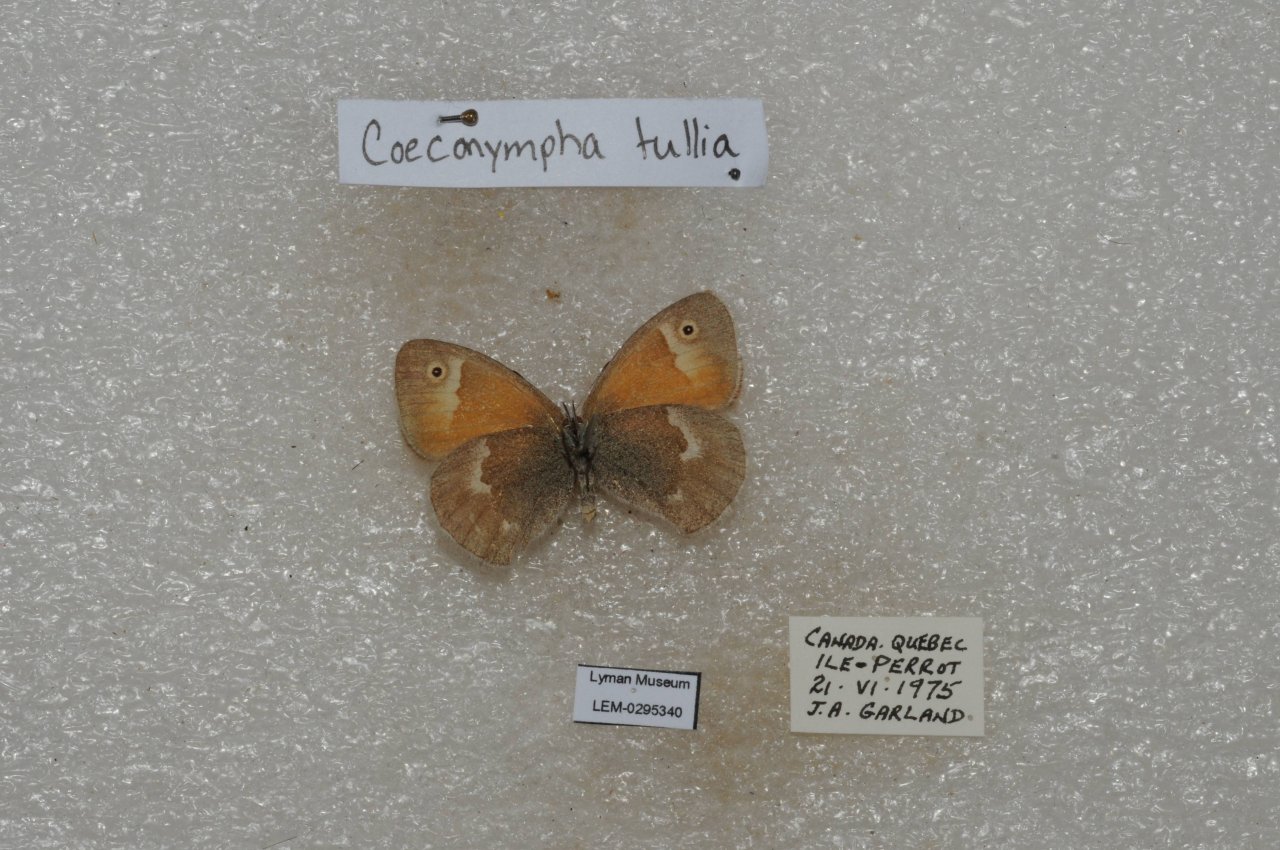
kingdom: Animalia
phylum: Arthropoda
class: Insecta
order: Lepidoptera
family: Nymphalidae
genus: Coenonympha
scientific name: Coenonympha tullia
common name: Large Heath
